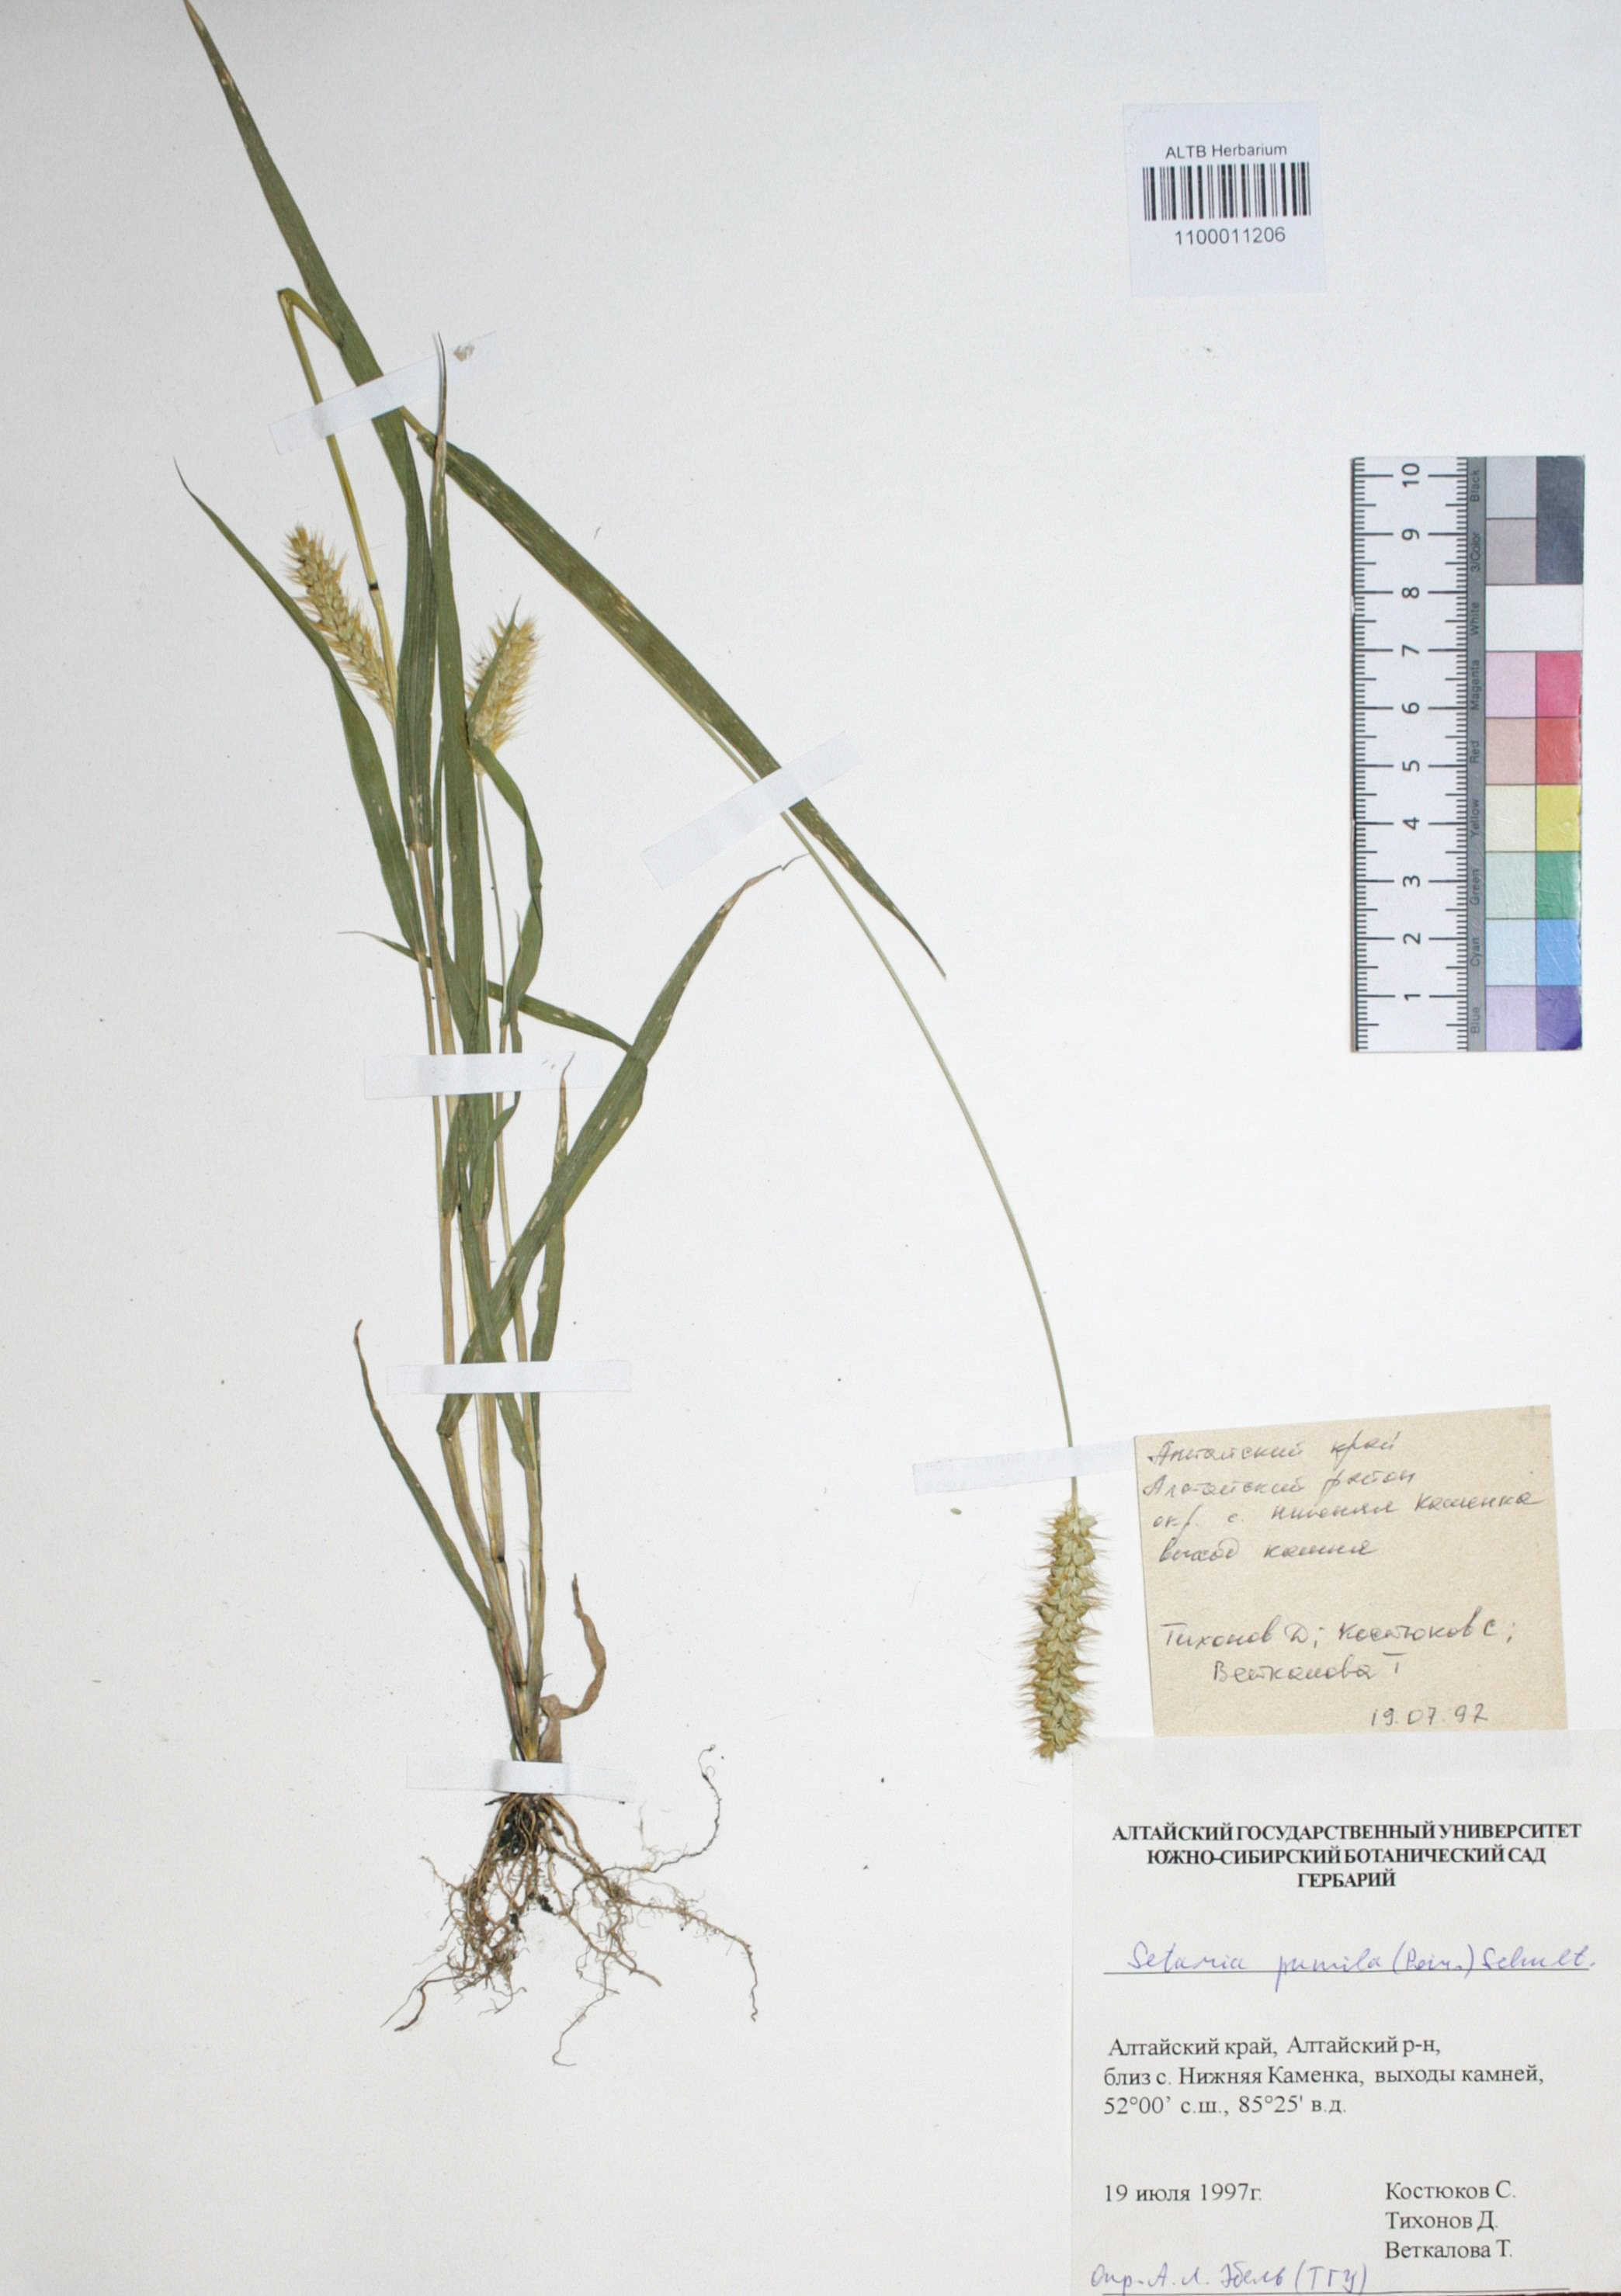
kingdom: Plantae
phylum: Tracheophyta
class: Liliopsida
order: Poales
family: Poaceae
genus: Setaria
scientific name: Setaria pumila
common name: Yellow bristle-grass
